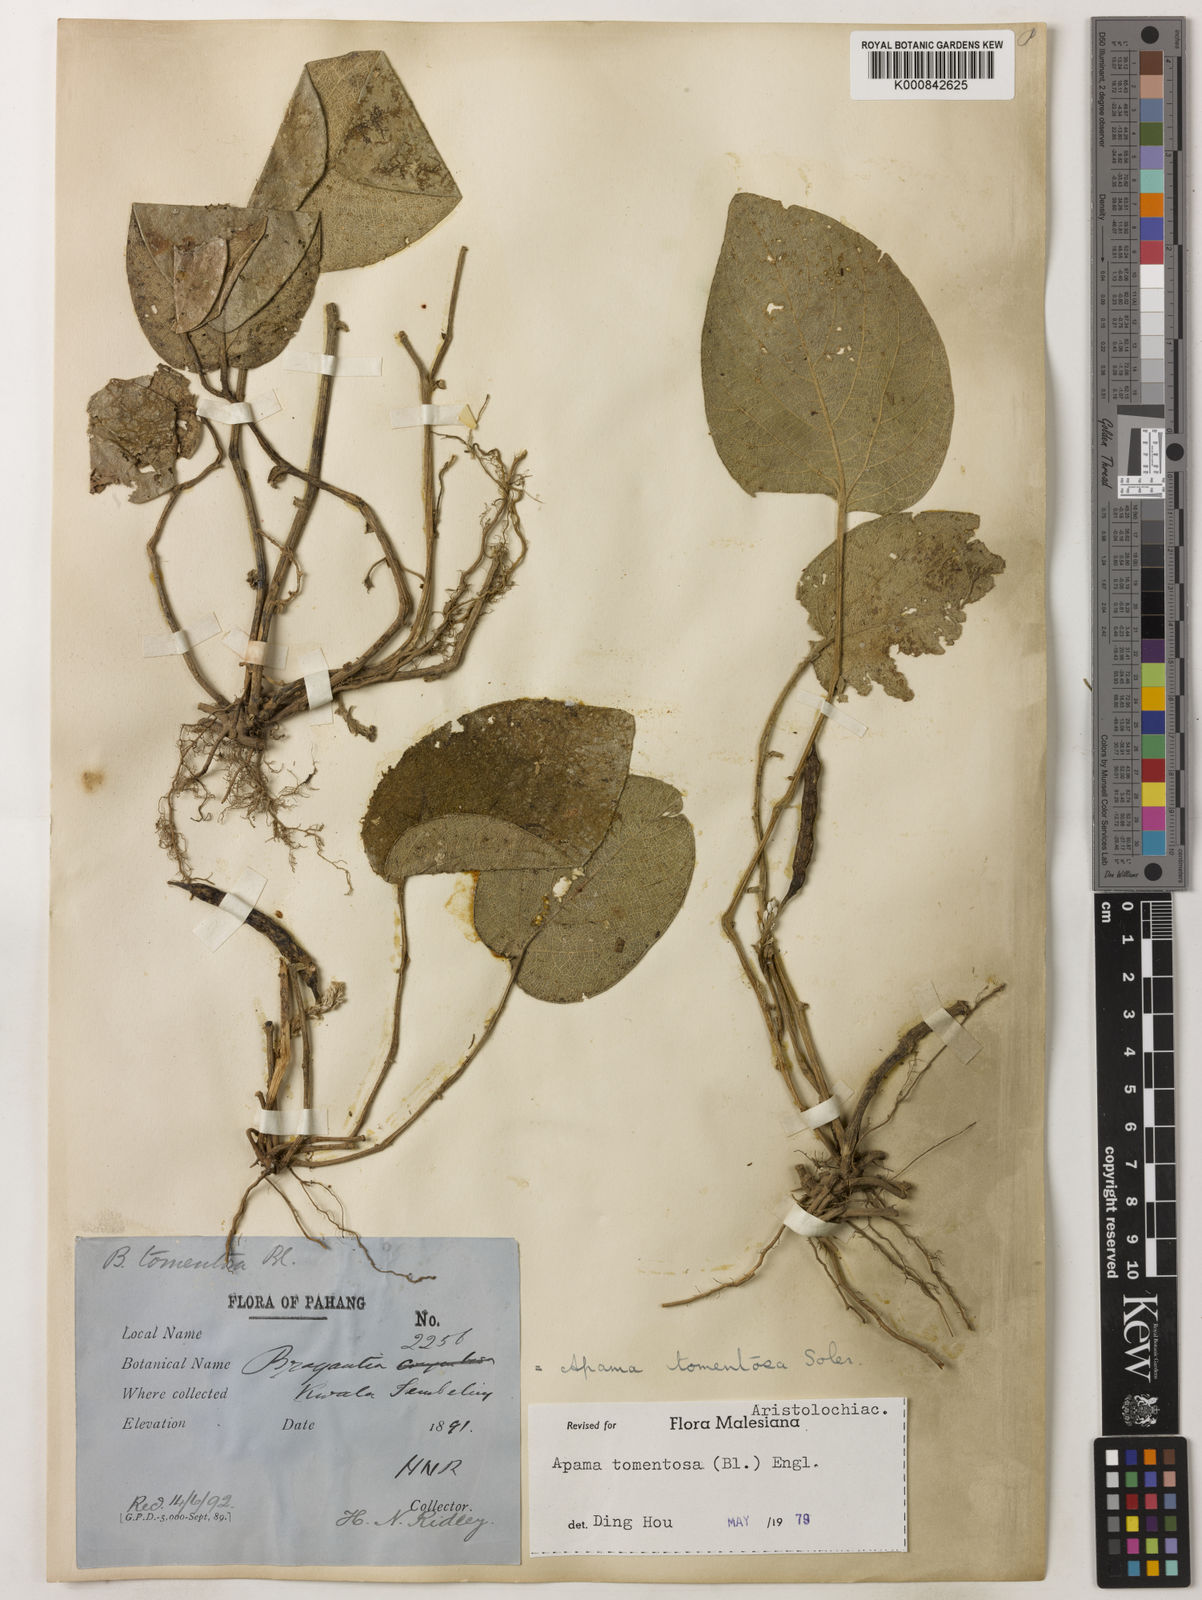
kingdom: Plantae
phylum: Tracheophyta
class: Magnoliopsida
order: Piperales
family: Aristolochiaceae
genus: Thottea
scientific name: Thottea tomentosa
